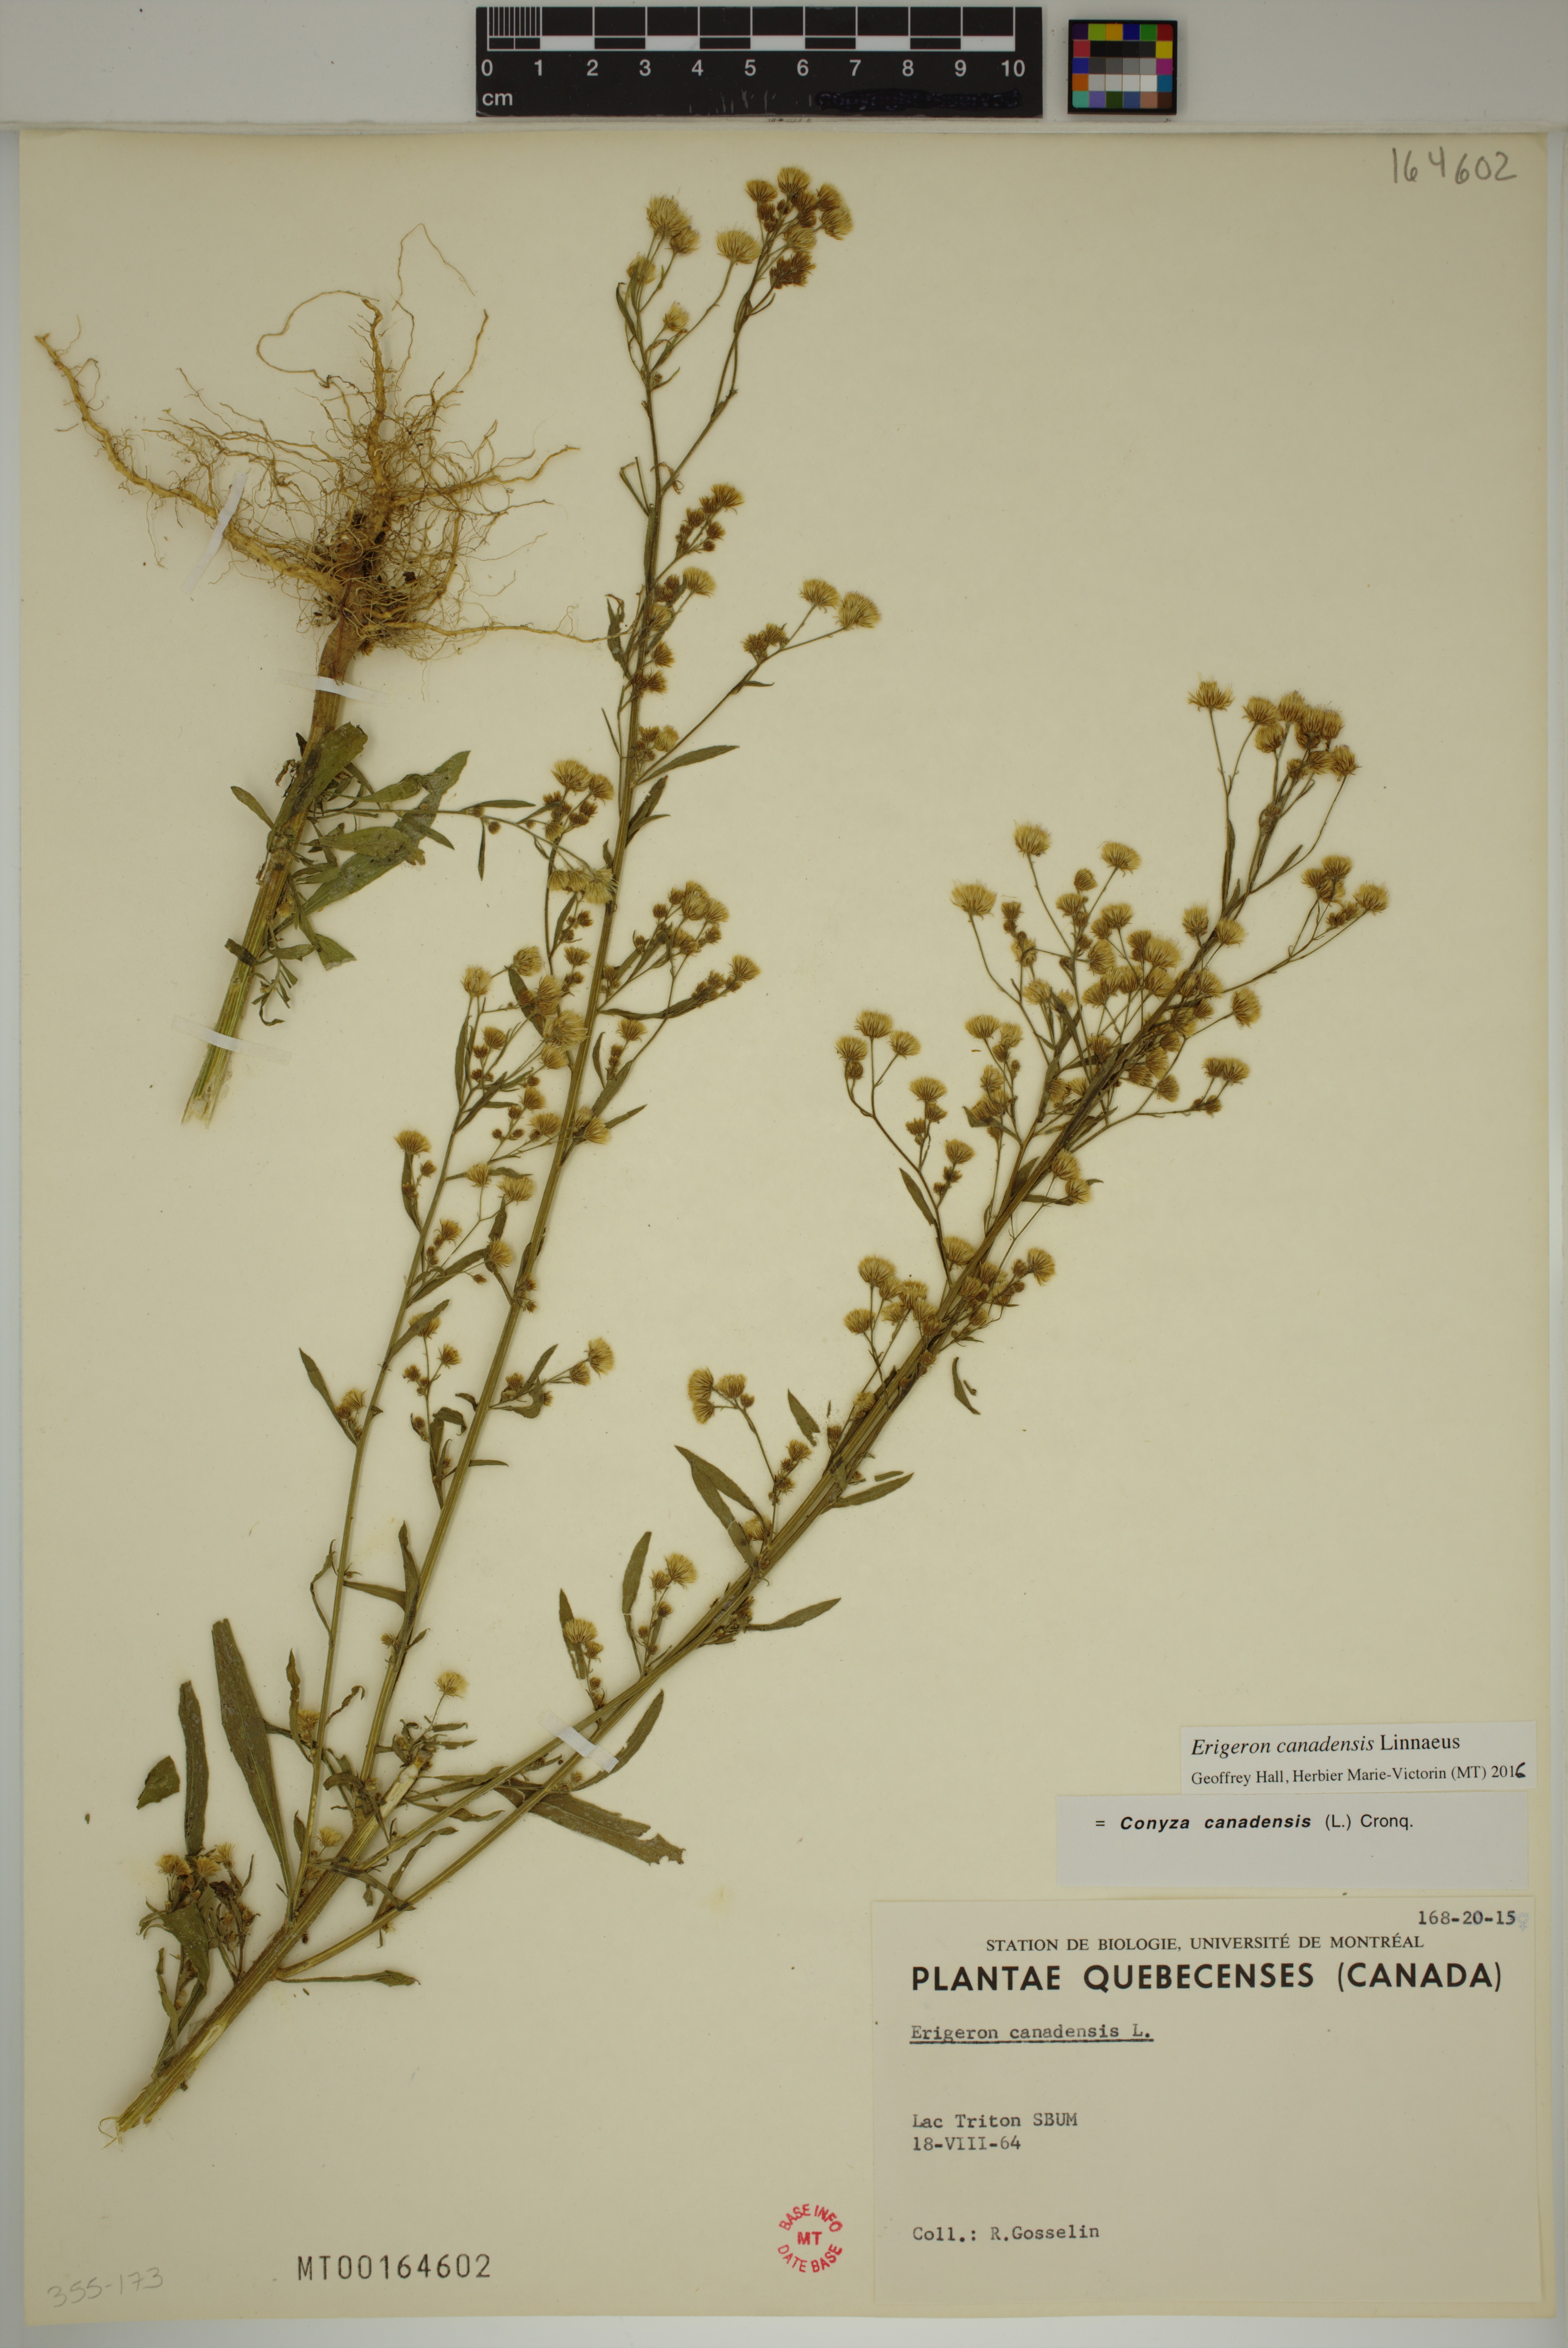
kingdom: Plantae
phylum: Tracheophyta
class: Magnoliopsida
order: Asterales
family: Asteraceae
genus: Erigeron
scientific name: Erigeron canadensis
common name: Canadian fleabane
